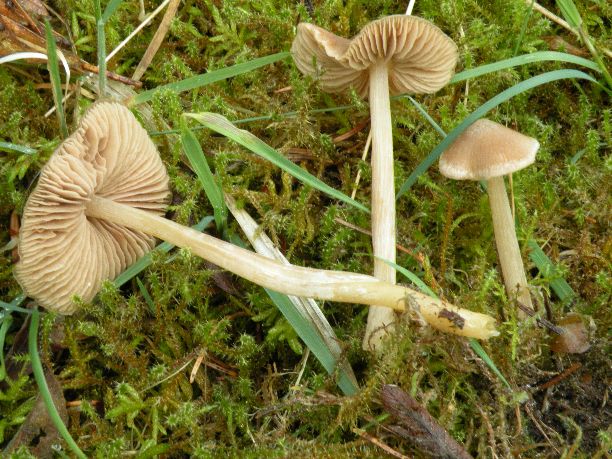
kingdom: Fungi
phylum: Basidiomycota
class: Agaricomycetes
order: Agaricales
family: Entolomataceae
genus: Entoloma
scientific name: Entoloma cuneatum
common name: dunstokket rødblad
